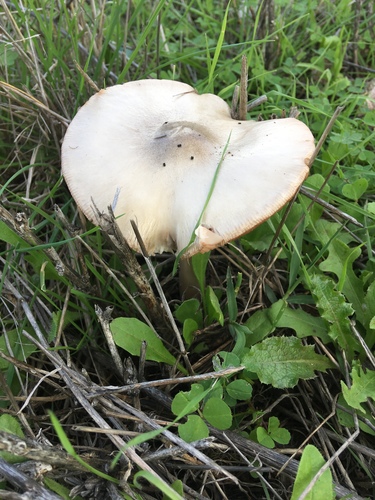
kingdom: Fungi
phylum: Basidiomycota
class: Agaricomycetes
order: Agaricales
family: Pluteaceae
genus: Volvopluteus
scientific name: Volvopluteus gloiocephalus
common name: Stubble rosegill
